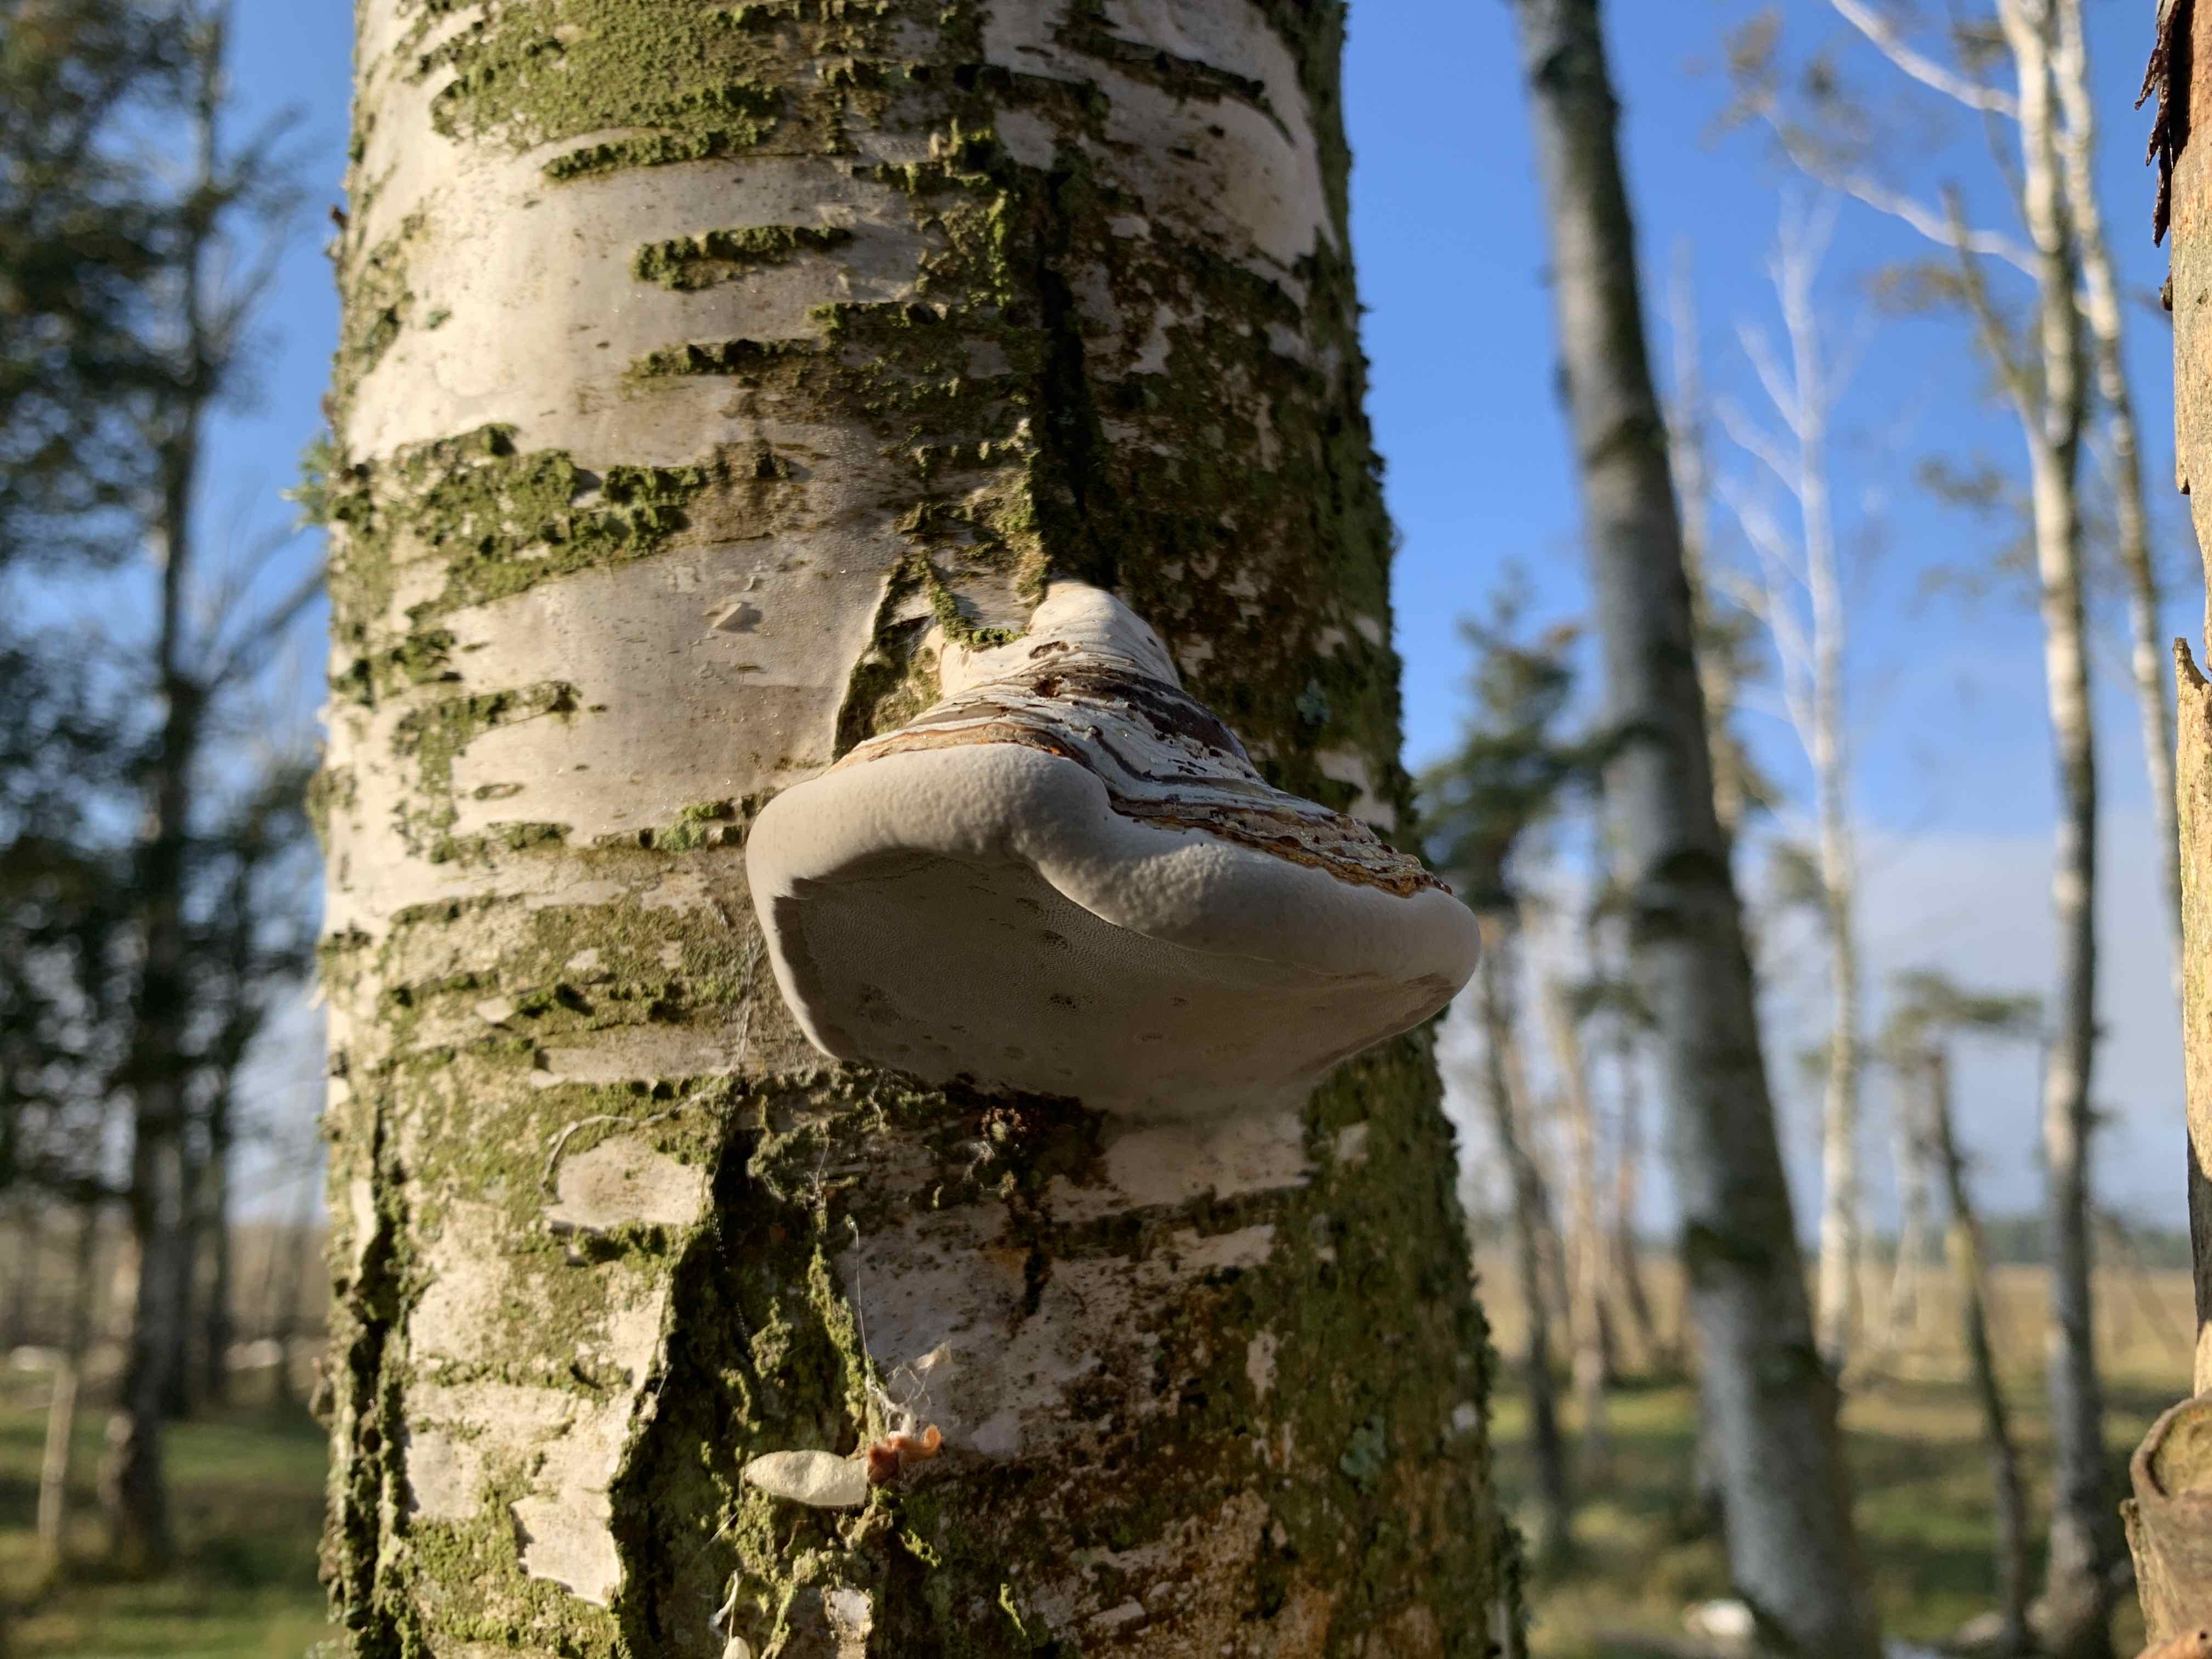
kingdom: Fungi
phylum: Basidiomycota
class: Agaricomycetes
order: Polyporales
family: Polyporaceae
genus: Fomes
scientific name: Fomes fomentarius
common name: tøndersvamp
